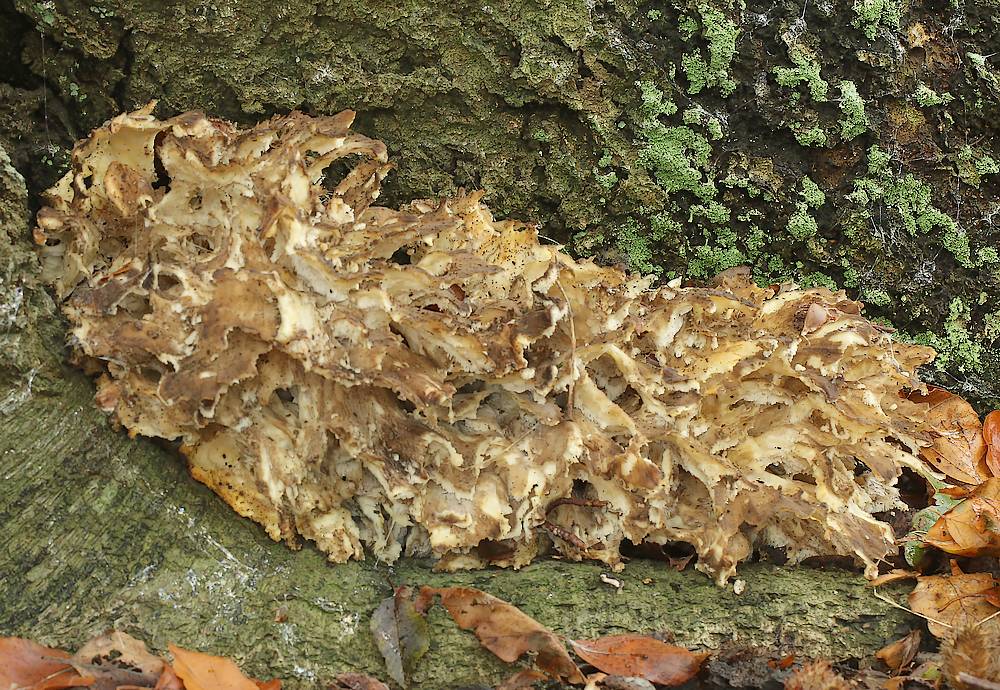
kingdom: Fungi
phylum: Basidiomycota
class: Agaricomycetes
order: Polyporales
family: Grifolaceae
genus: Grifola
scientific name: Grifola frondosa
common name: tueporesvamp
